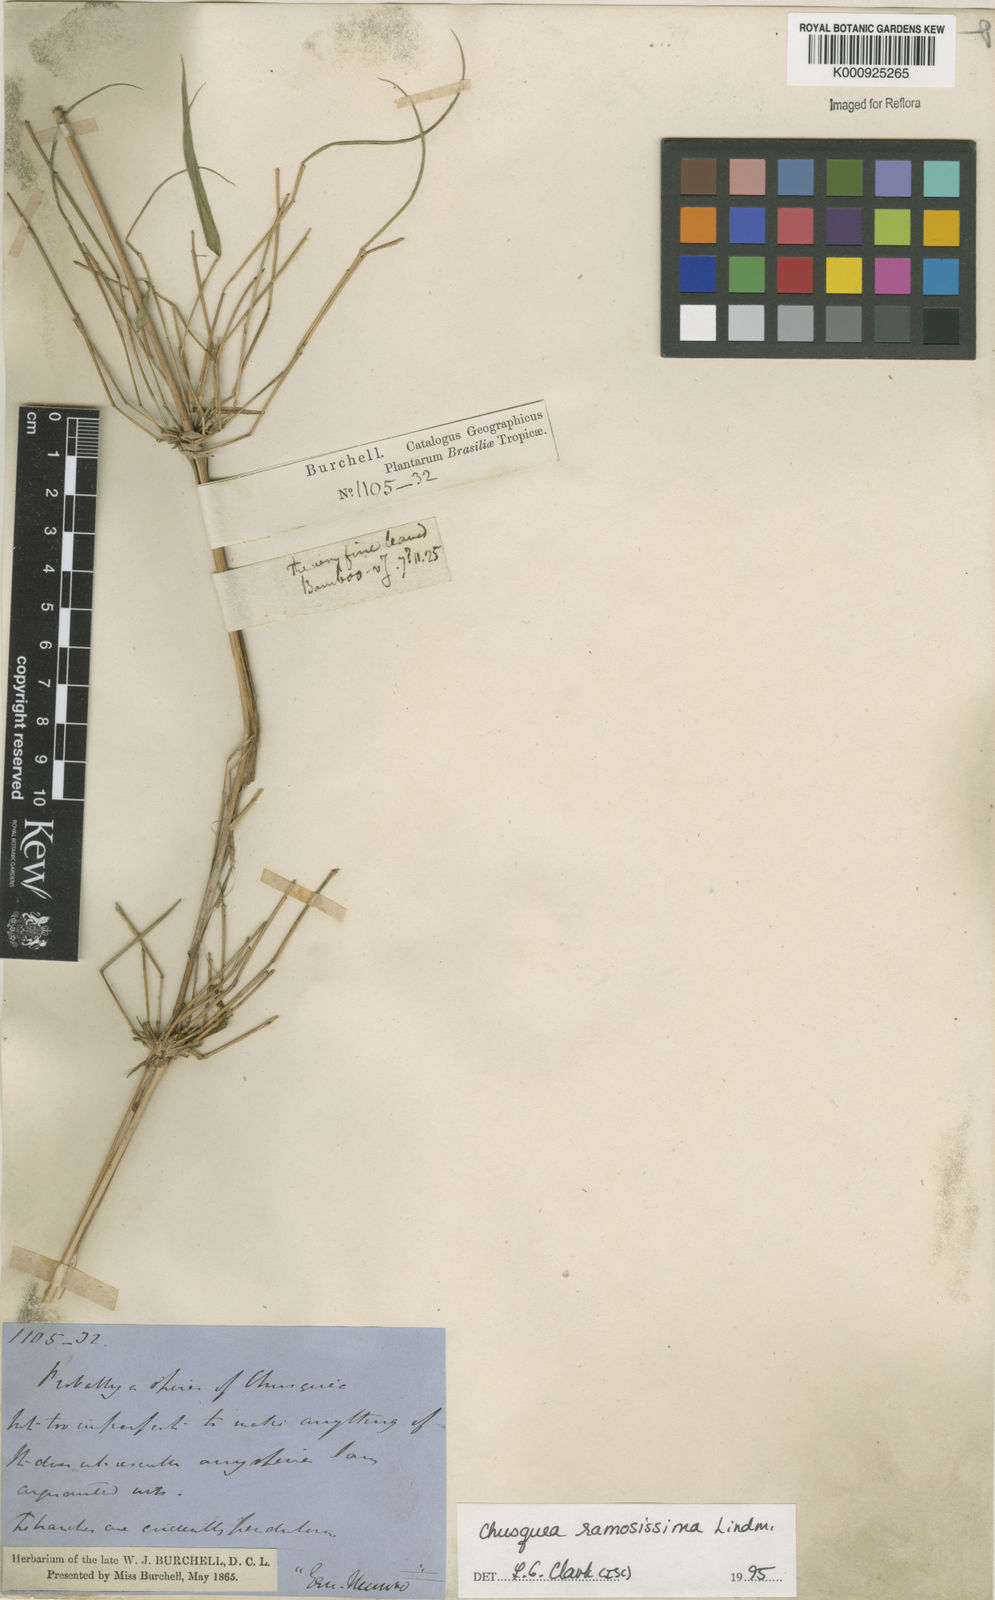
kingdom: Plantae
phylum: Tracheophyta
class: Liliopsida
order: Poales
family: Poaceae
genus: Chusquea
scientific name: Chusquea ramosissima
